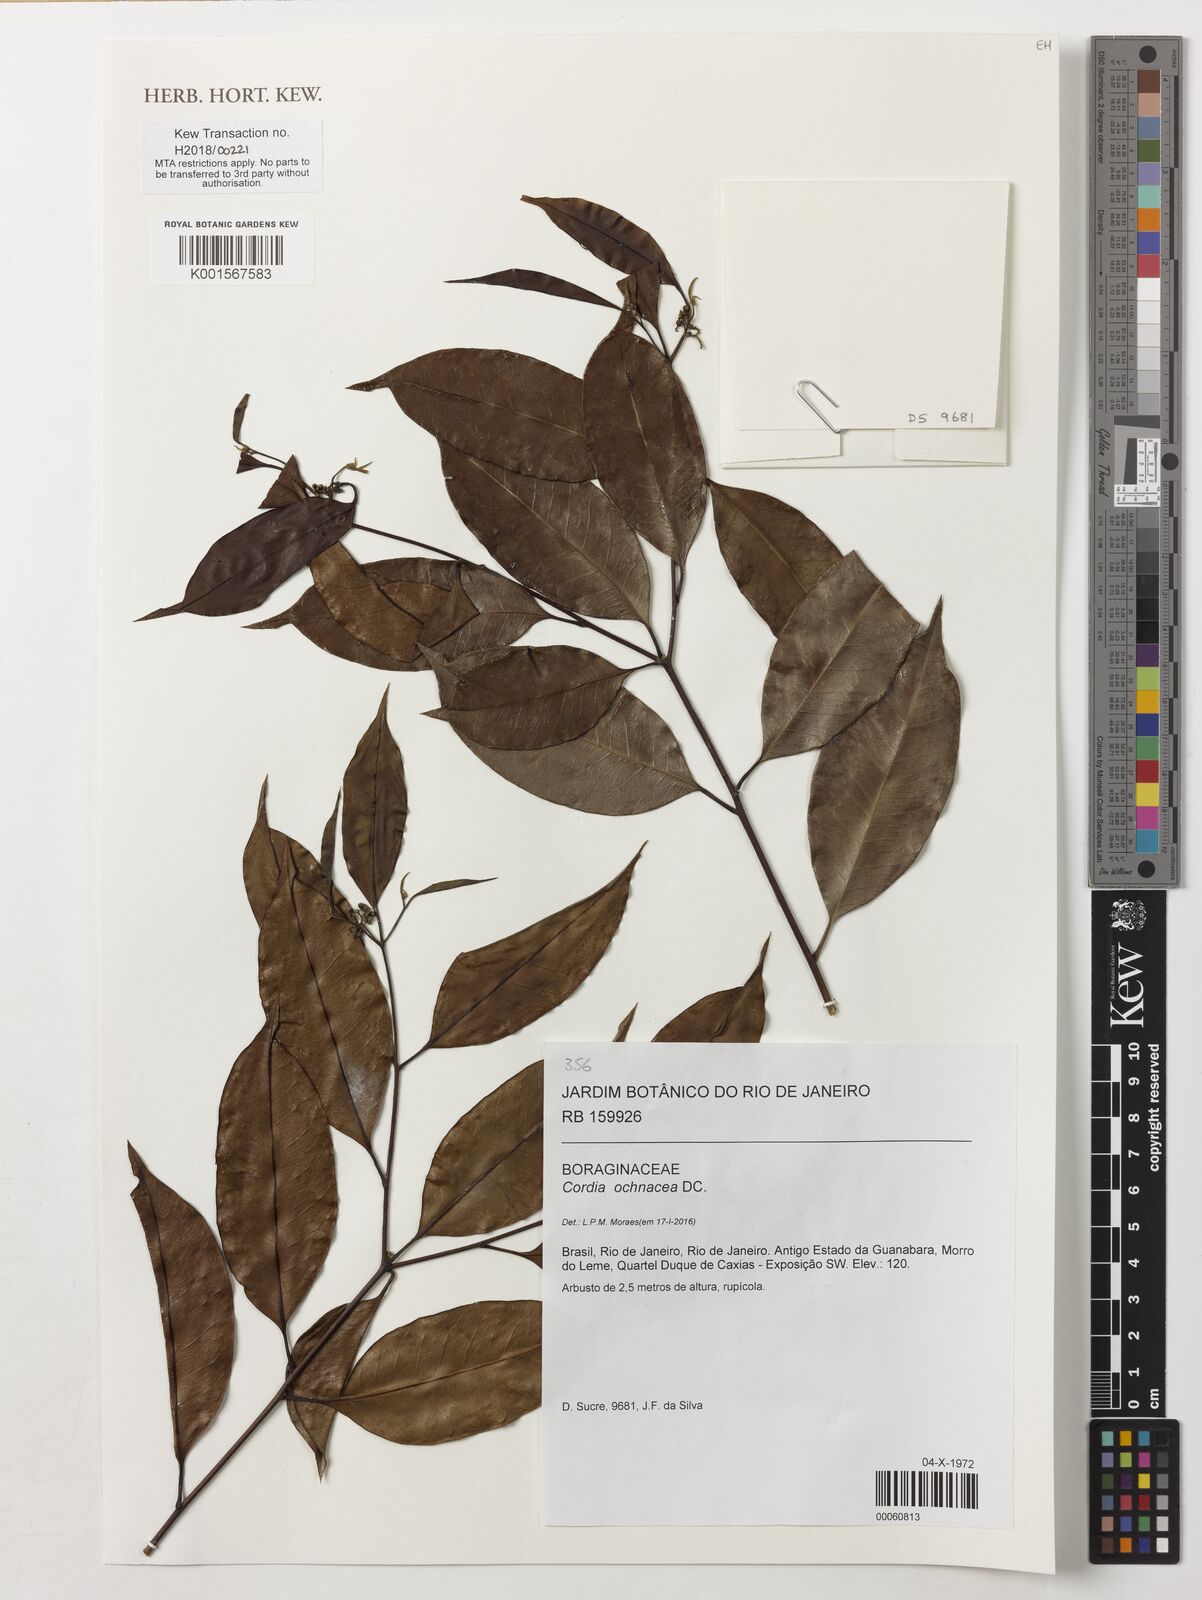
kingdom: Plantae
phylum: Tracheophyta
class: Magnoliopsida
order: Boraginales
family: Cordiaceae
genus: Cordia
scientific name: Cordia ochnacea
